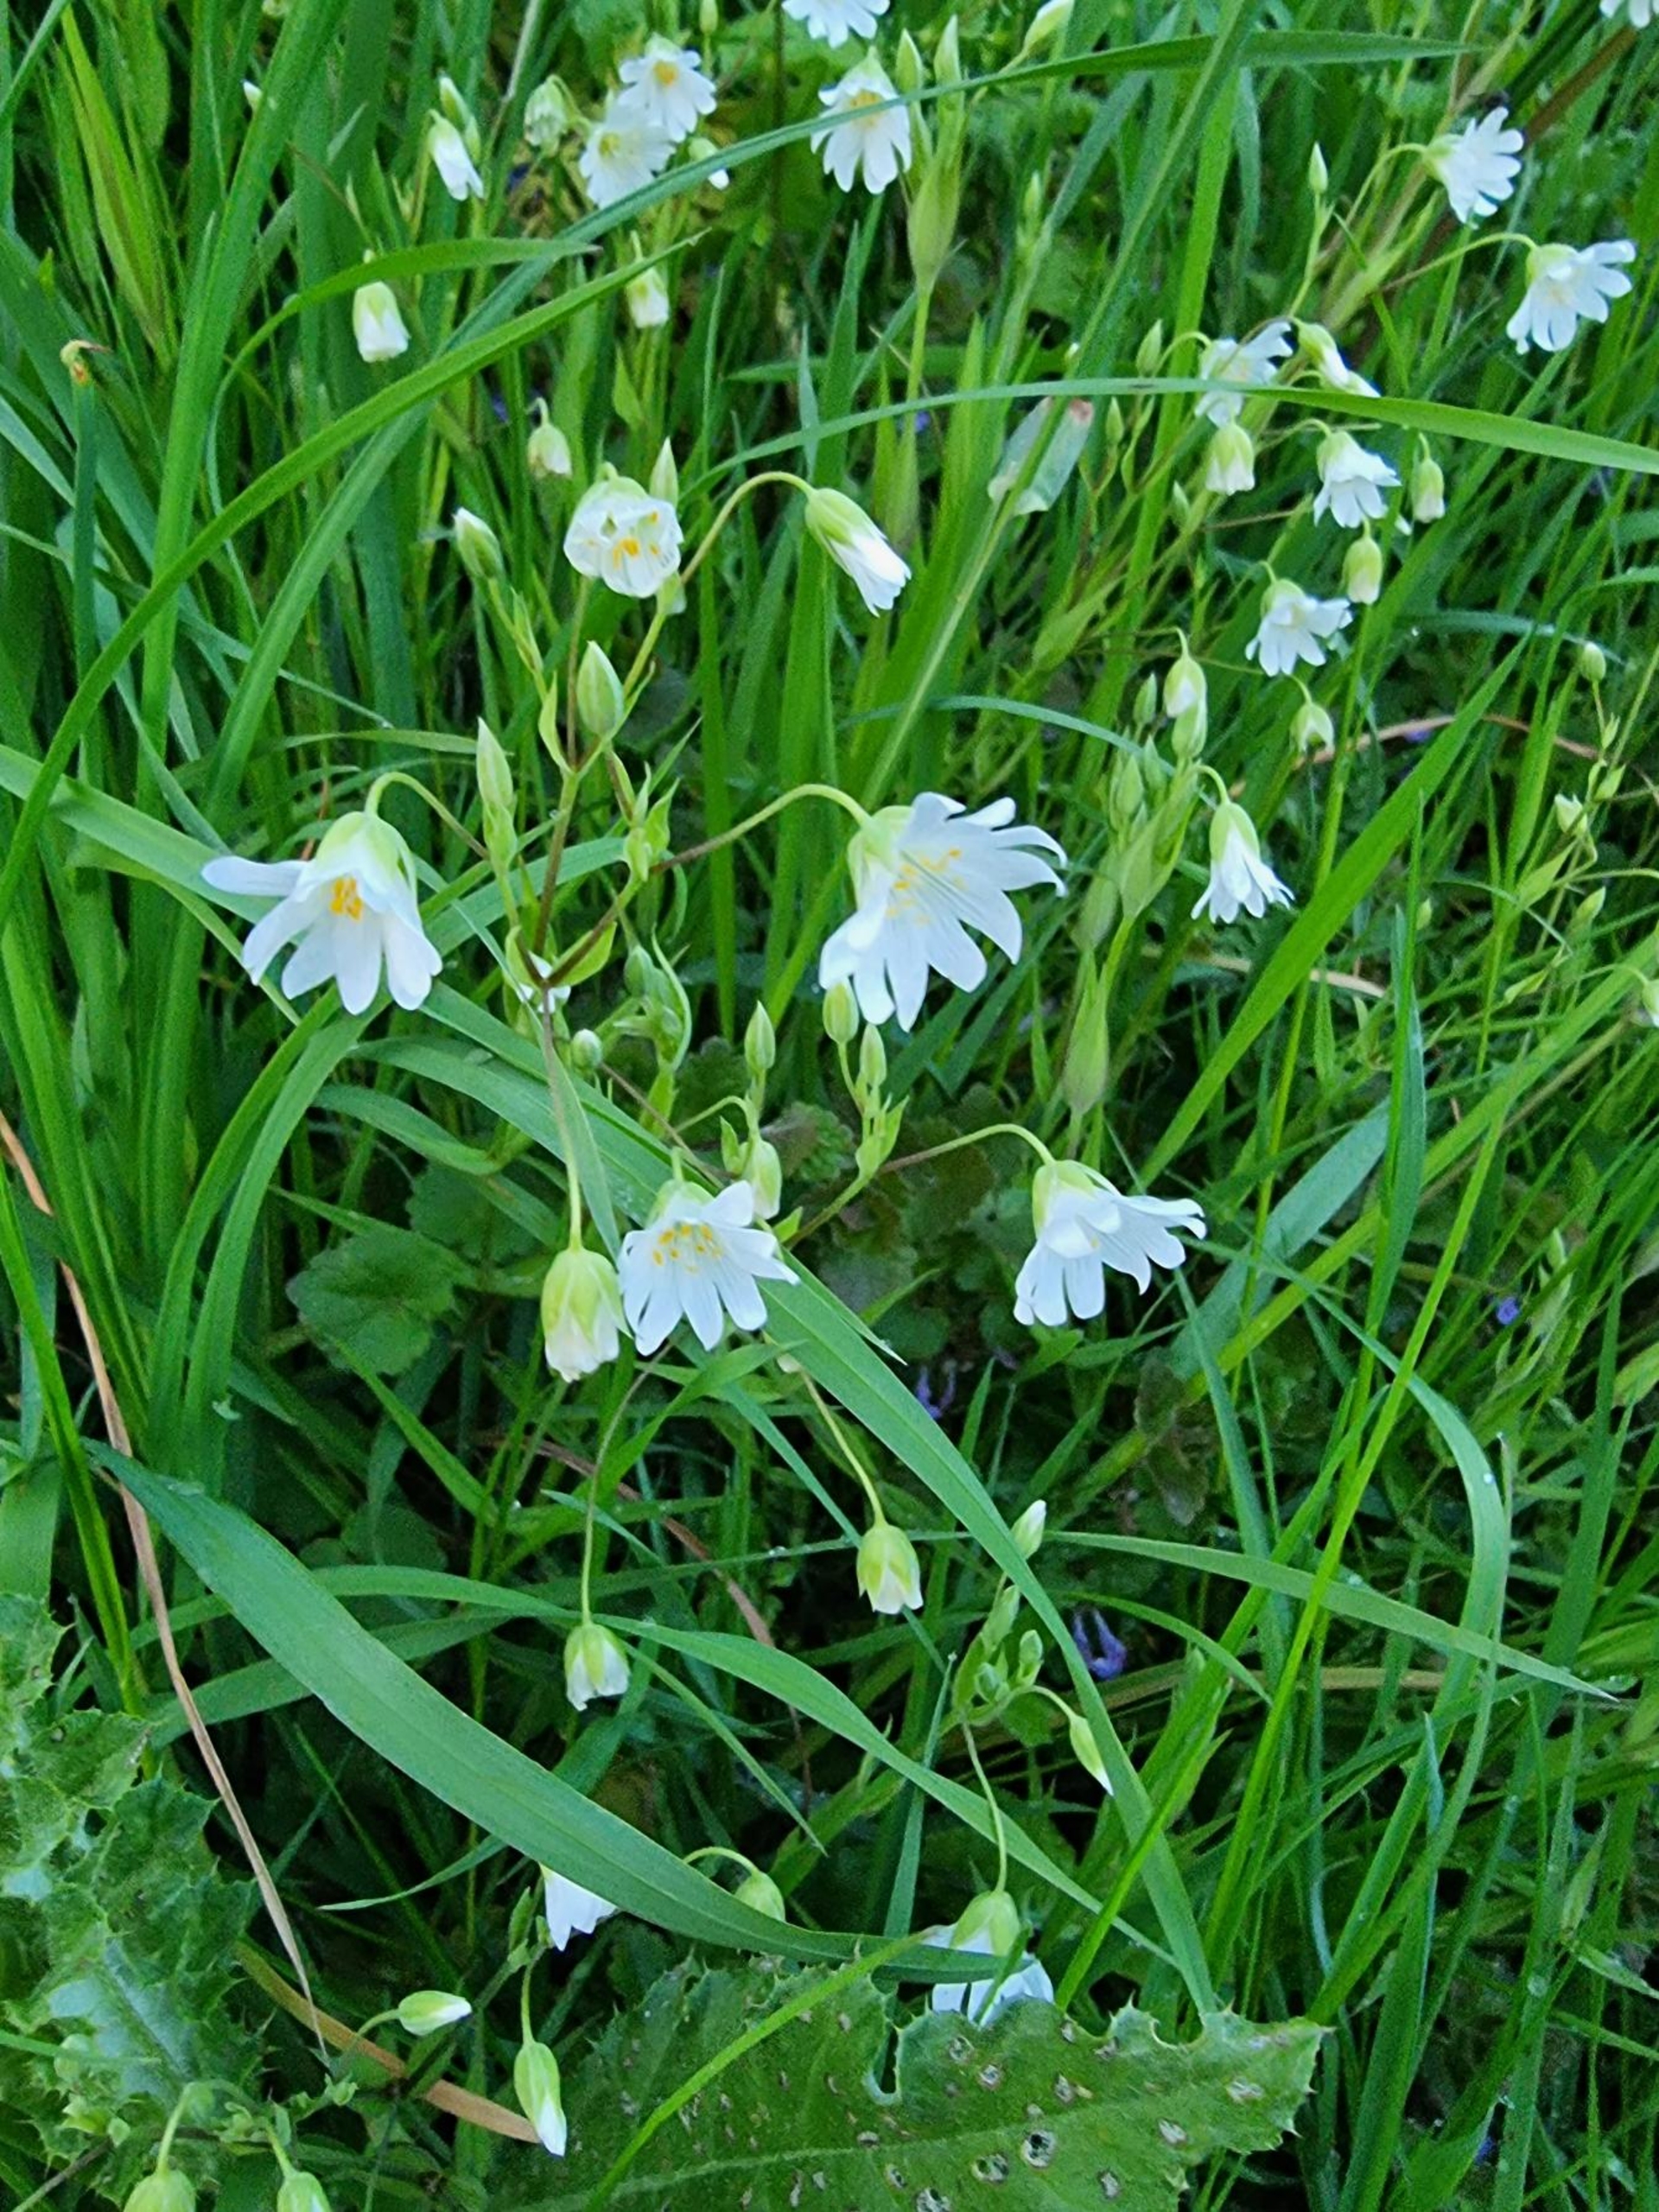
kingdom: Plantae
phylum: Tracheophyta
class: Magnoliopsida
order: Caryophyllales
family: Caryophyllaceae
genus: Rabelera
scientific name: Rabelera holostea
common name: Stor fladstjerne
